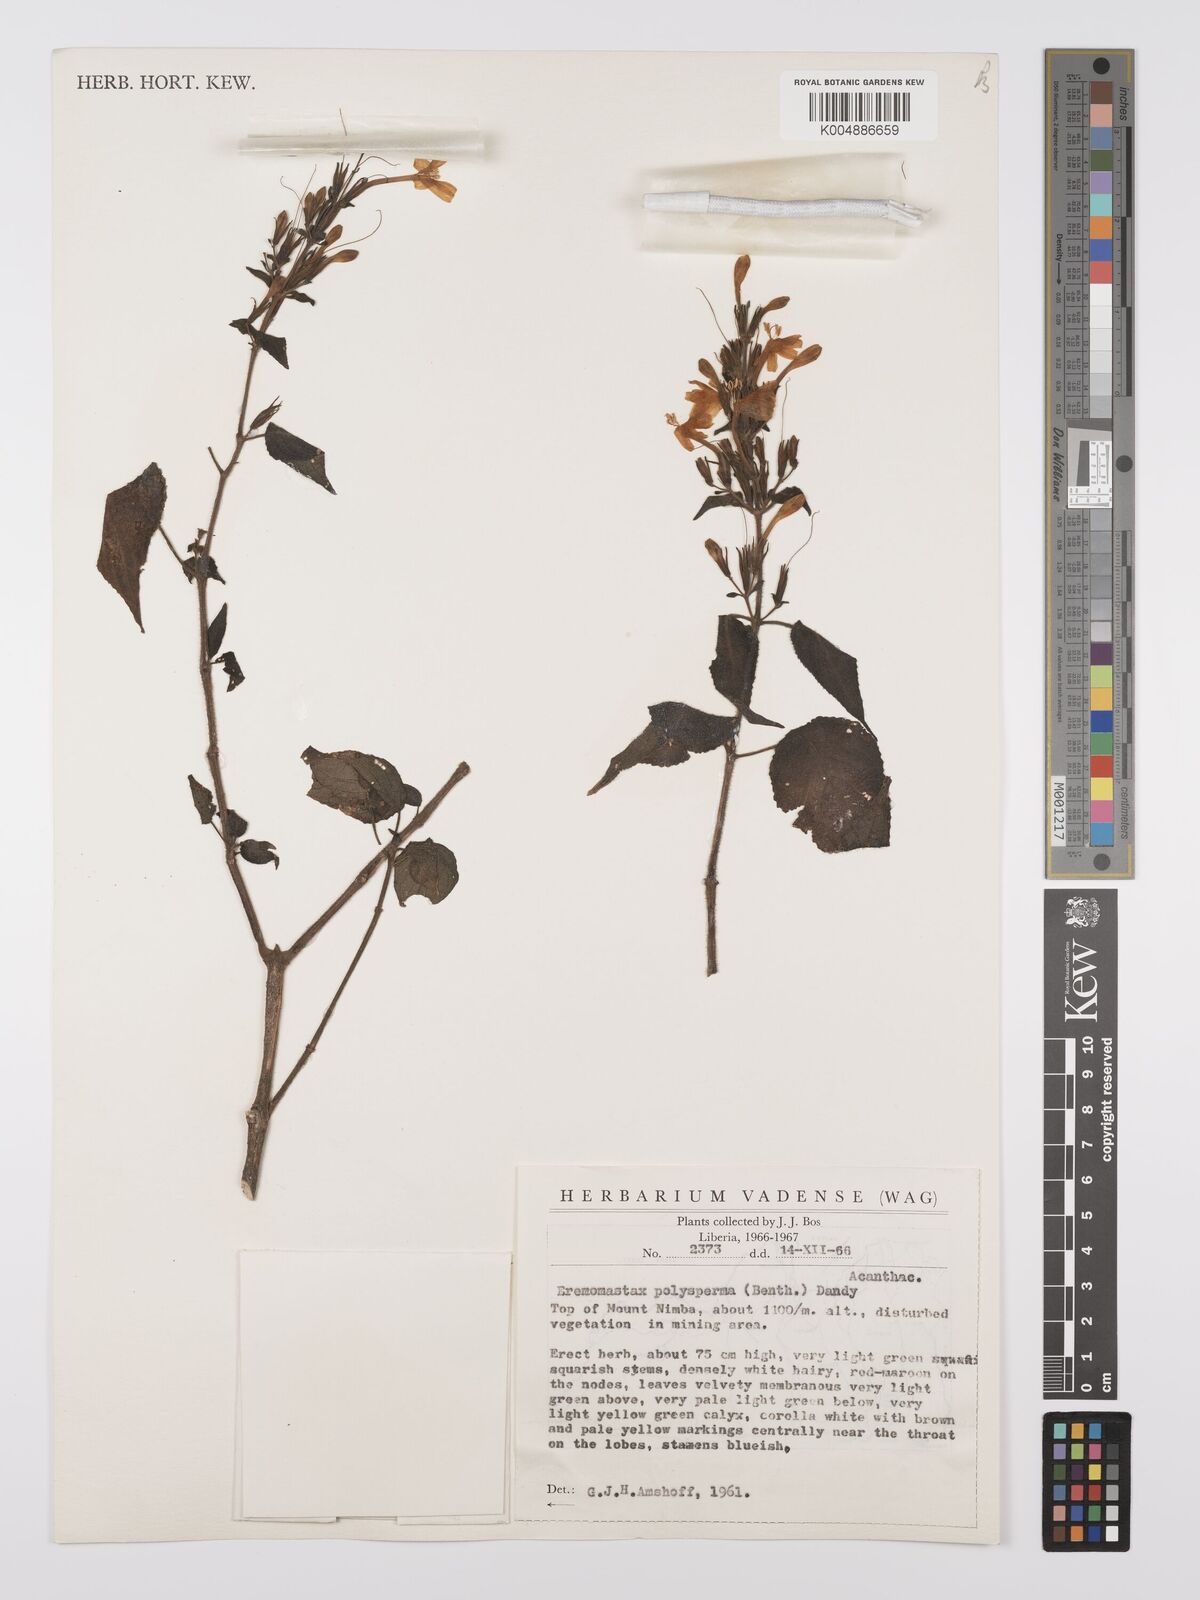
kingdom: Plantae
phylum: Tracheophyta
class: Magnoliopsida
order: Lamiales
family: Acanthaceae
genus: Eremomastax
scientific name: Eremomastax speciosa
